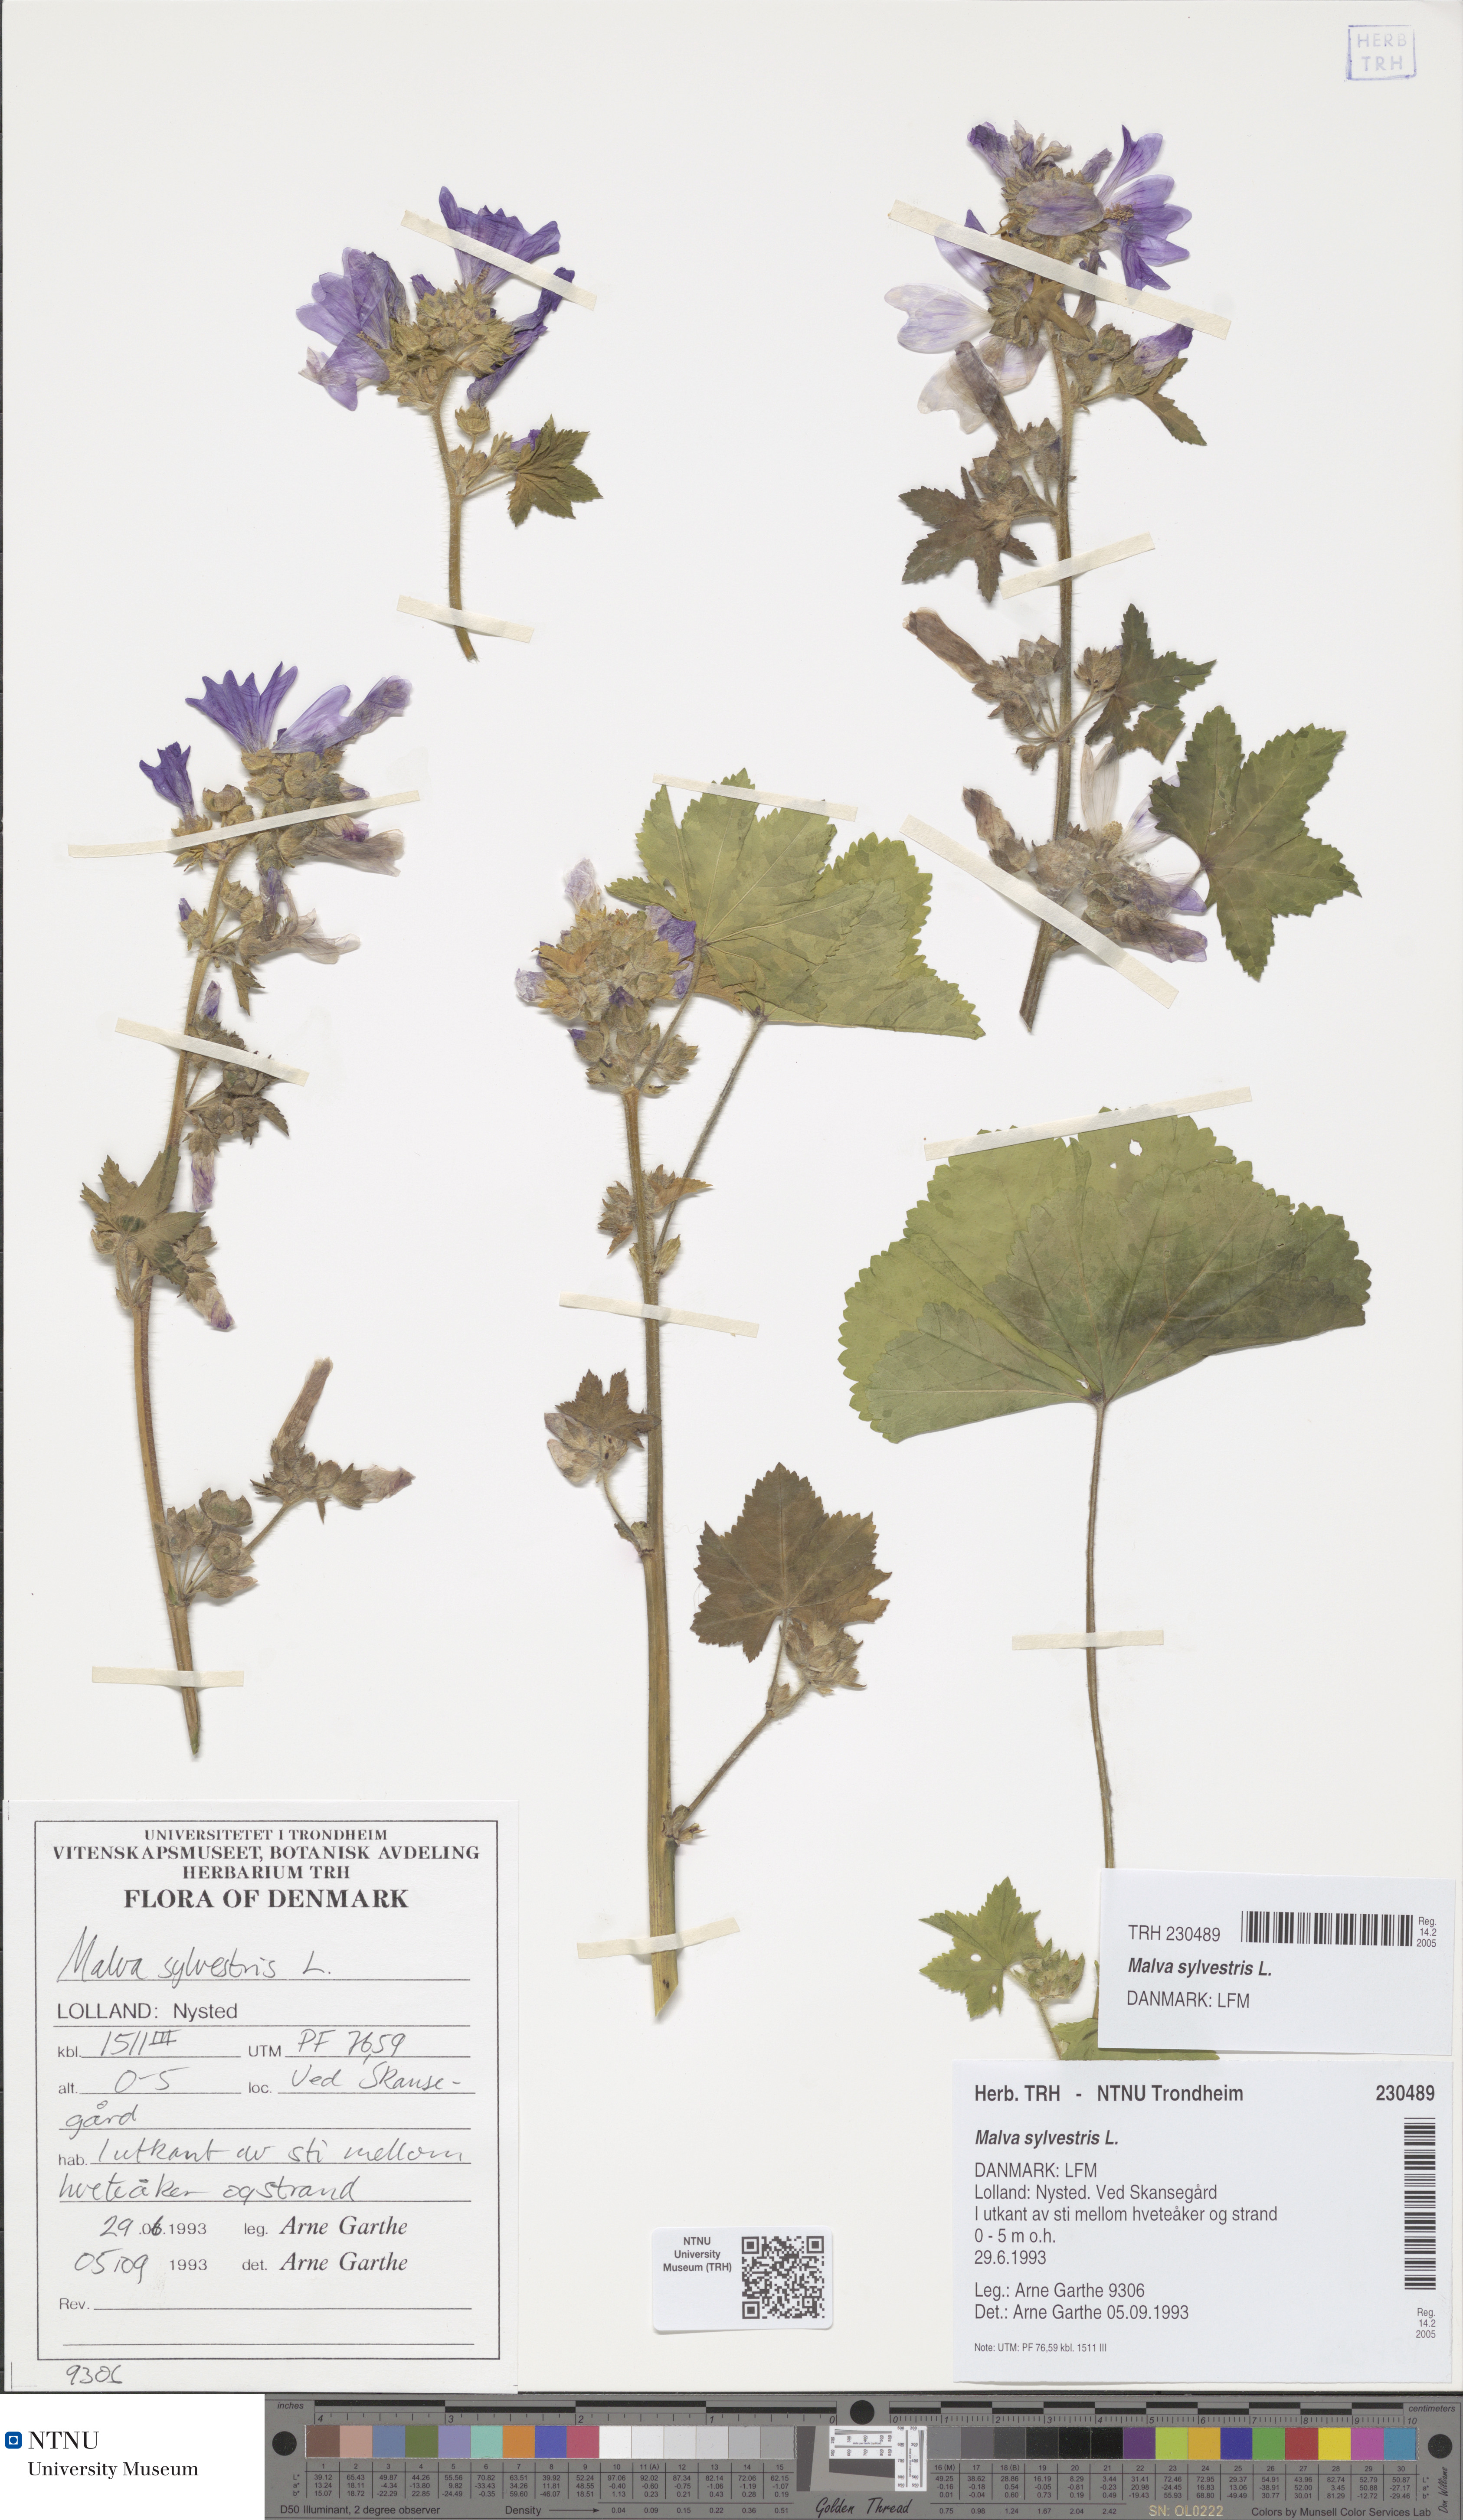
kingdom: Plantae
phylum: Tracheophyta
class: Magnoliopsida
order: Malvales
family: Malvaceae
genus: Malva
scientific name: Malva sylvestris
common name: Common mallow
